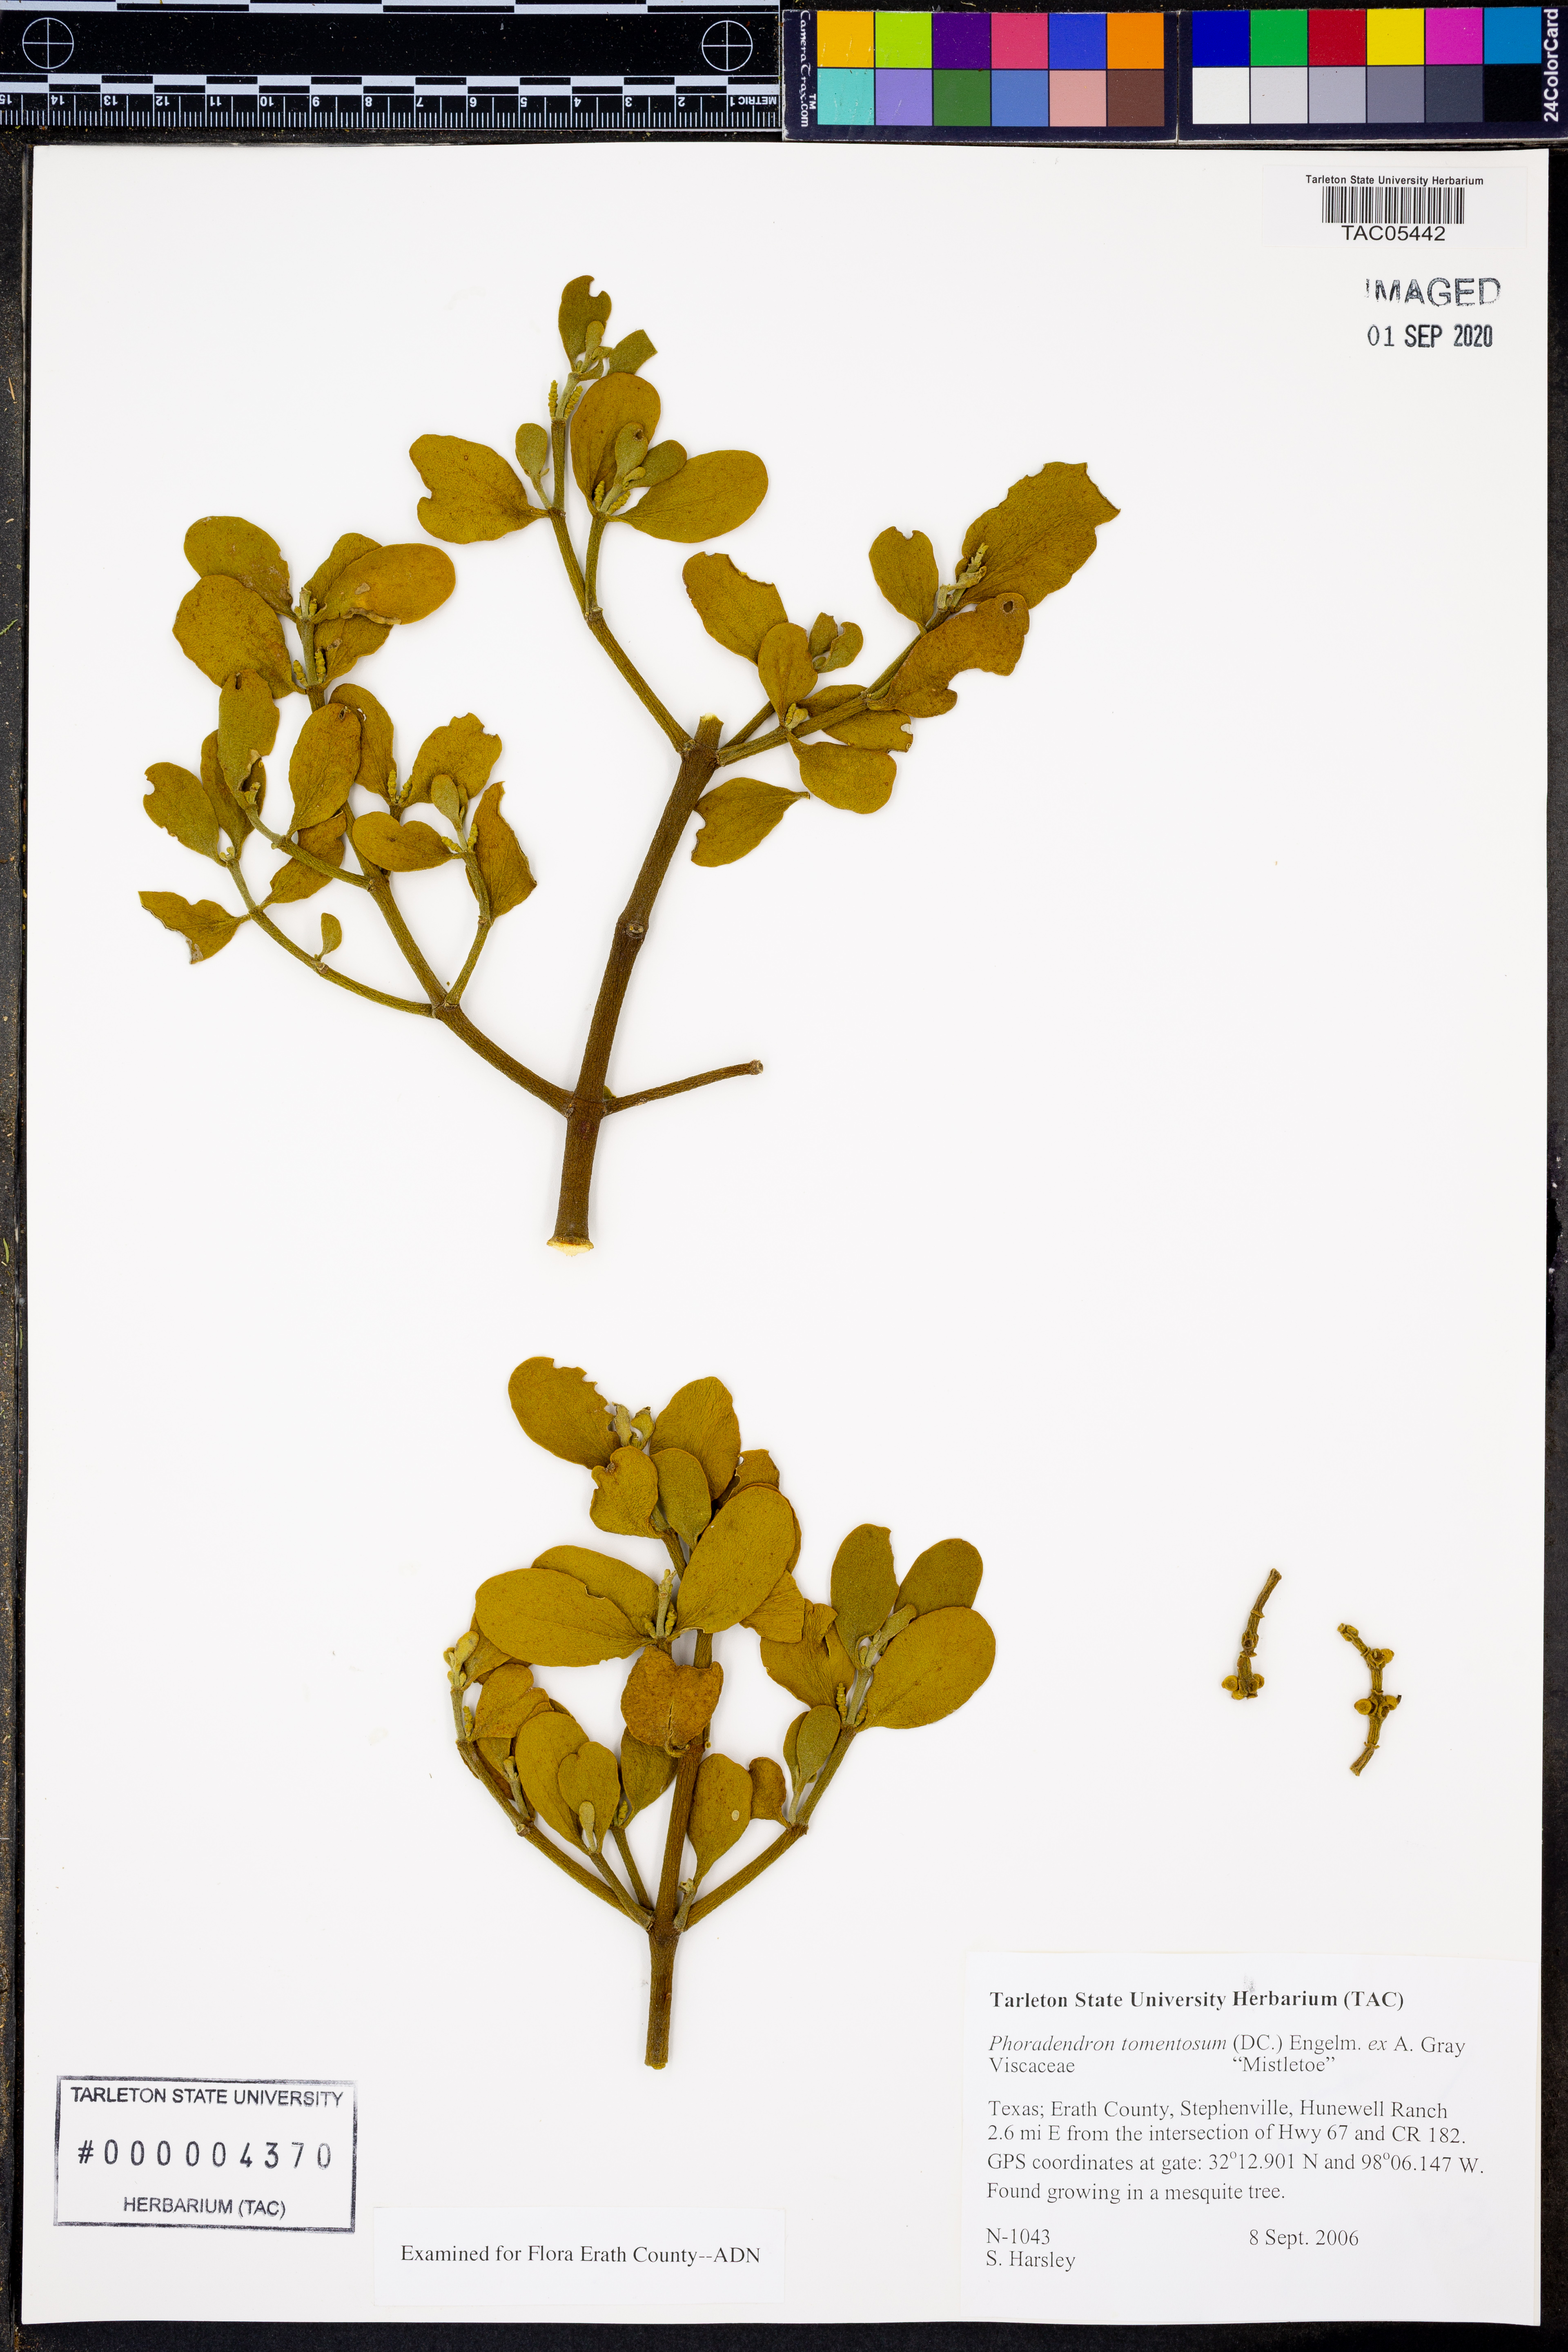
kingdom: Plantae
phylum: Tracheophyta
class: Magnoliopsida
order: Santalales
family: Viscaceae
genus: Phoradendron
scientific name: Phoradendron leucarpum
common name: Pacific mistletoe
